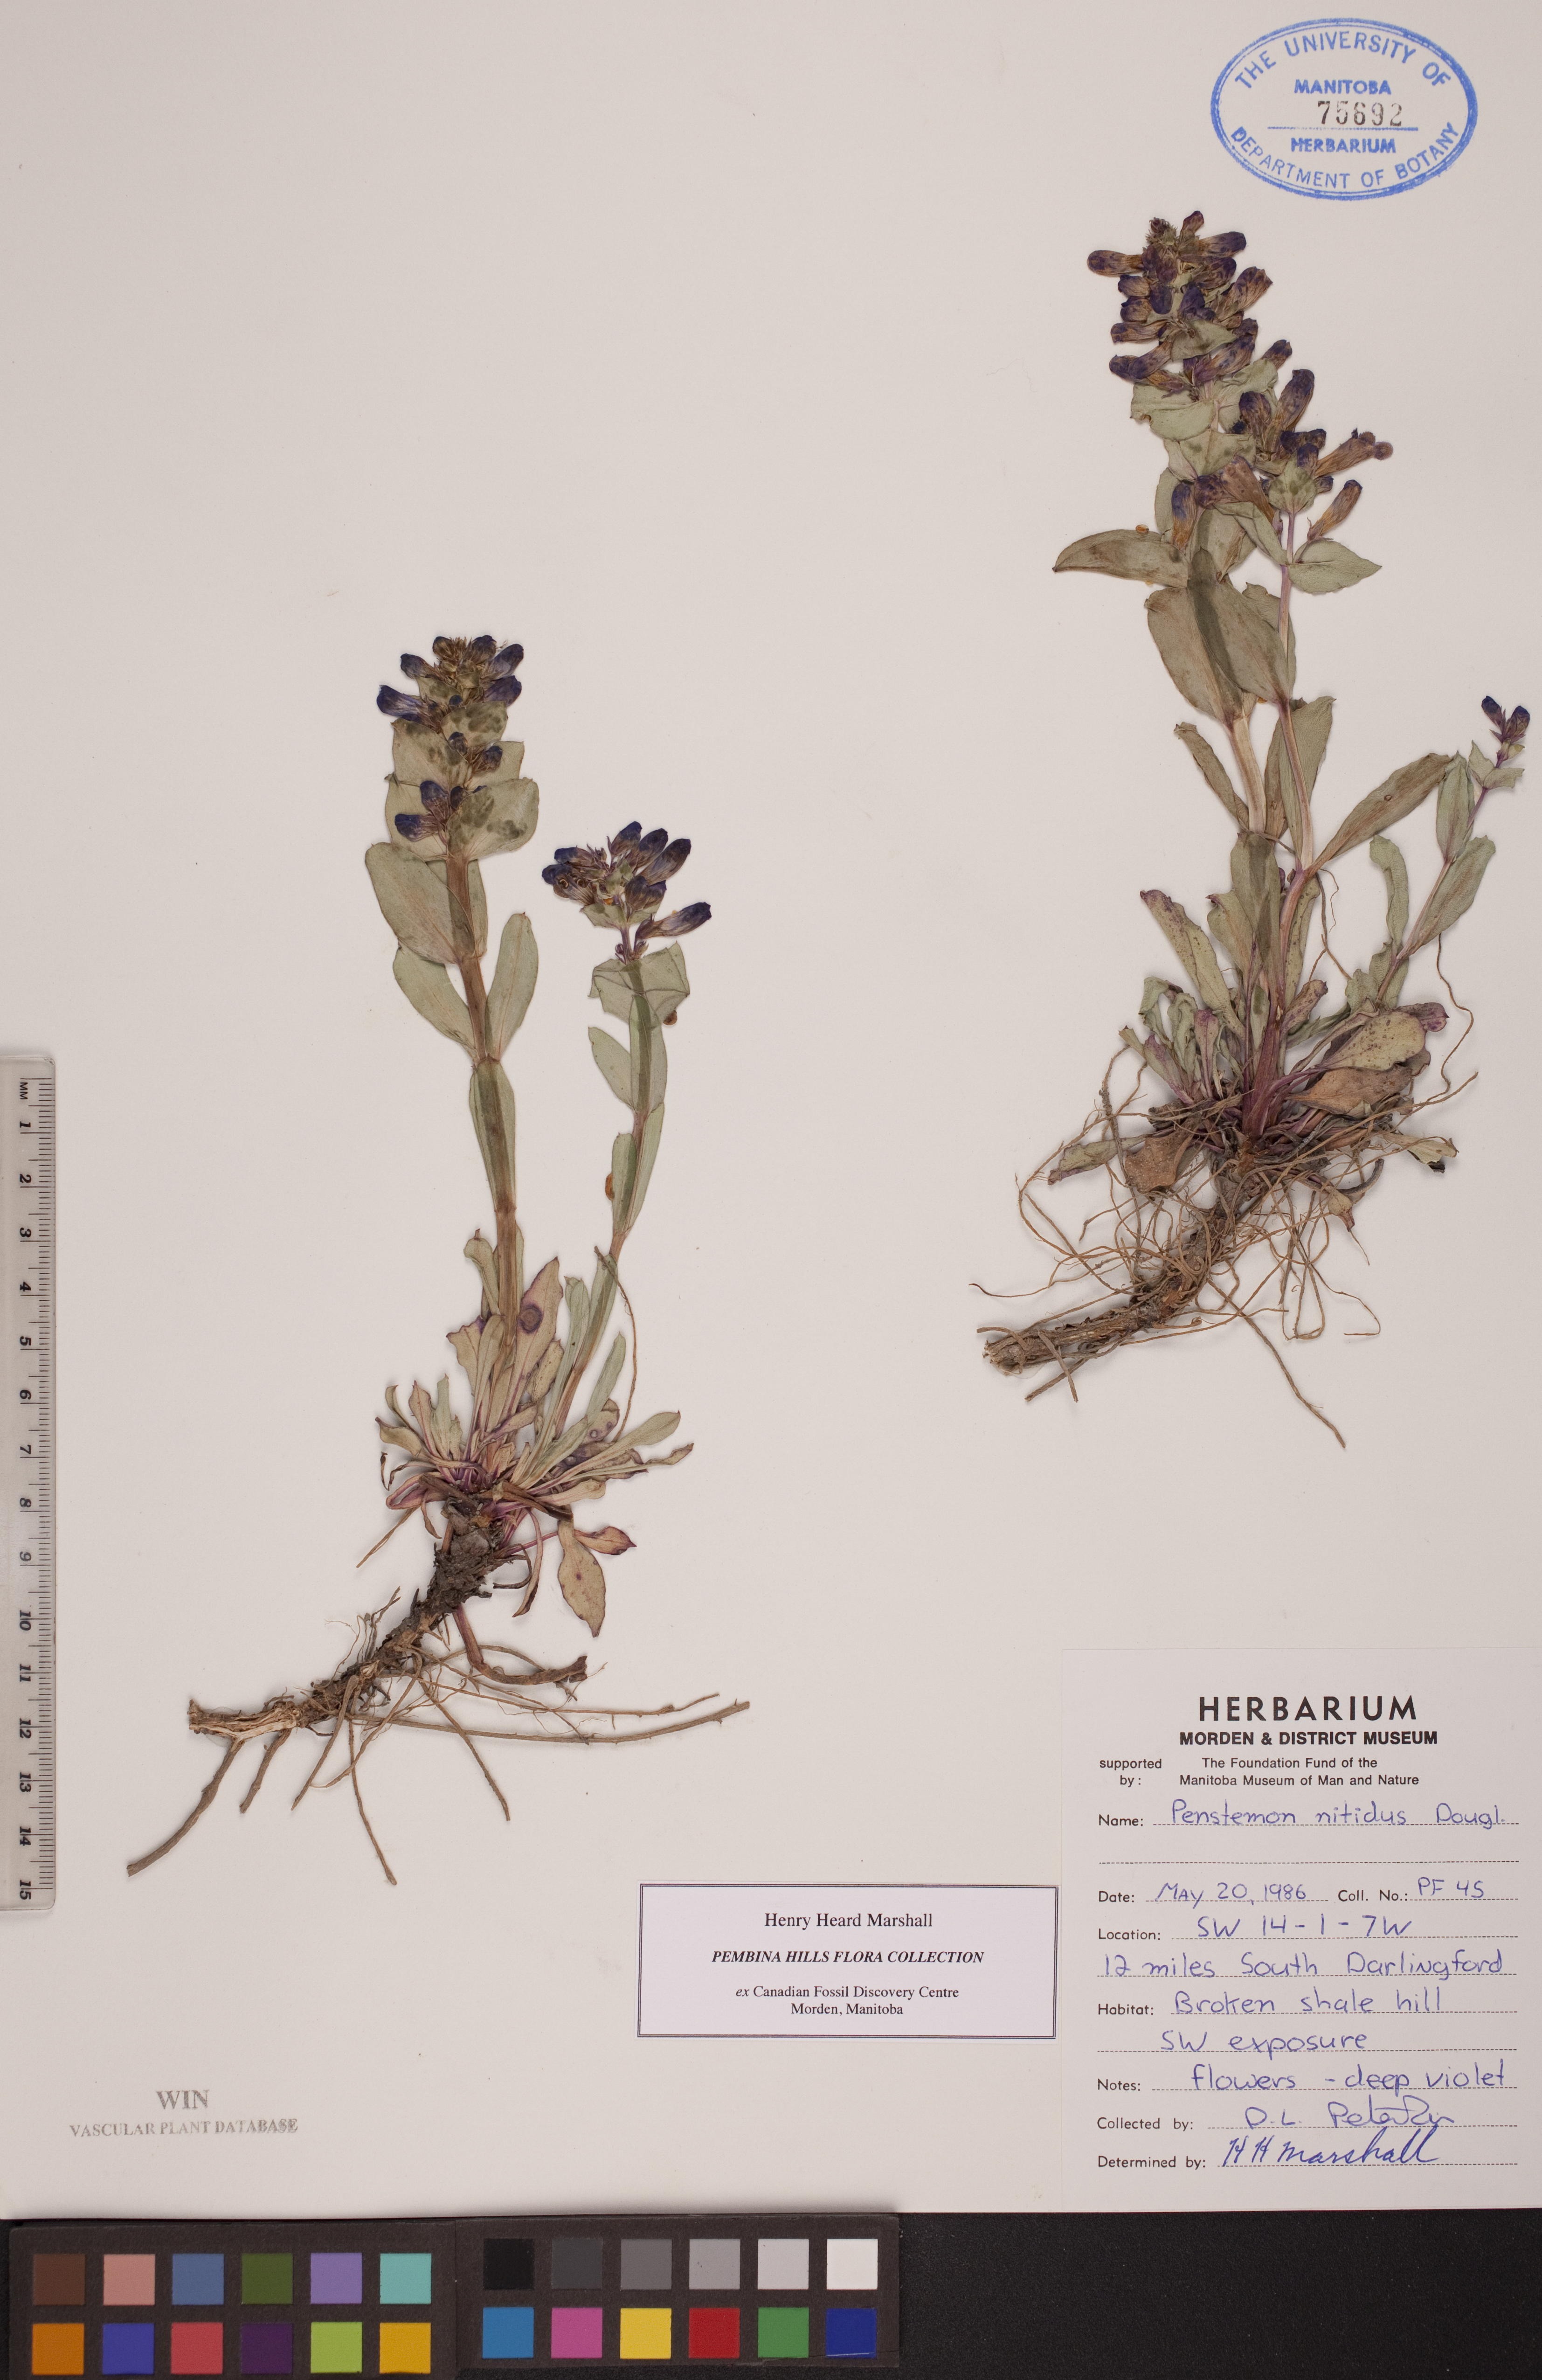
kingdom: Plantae
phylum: Tracheophyta
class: Magnoliopsida
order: Lamiales
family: Plantaginaceae
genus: Penstemon
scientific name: Penstemon nitidus
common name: Shining penstemon
